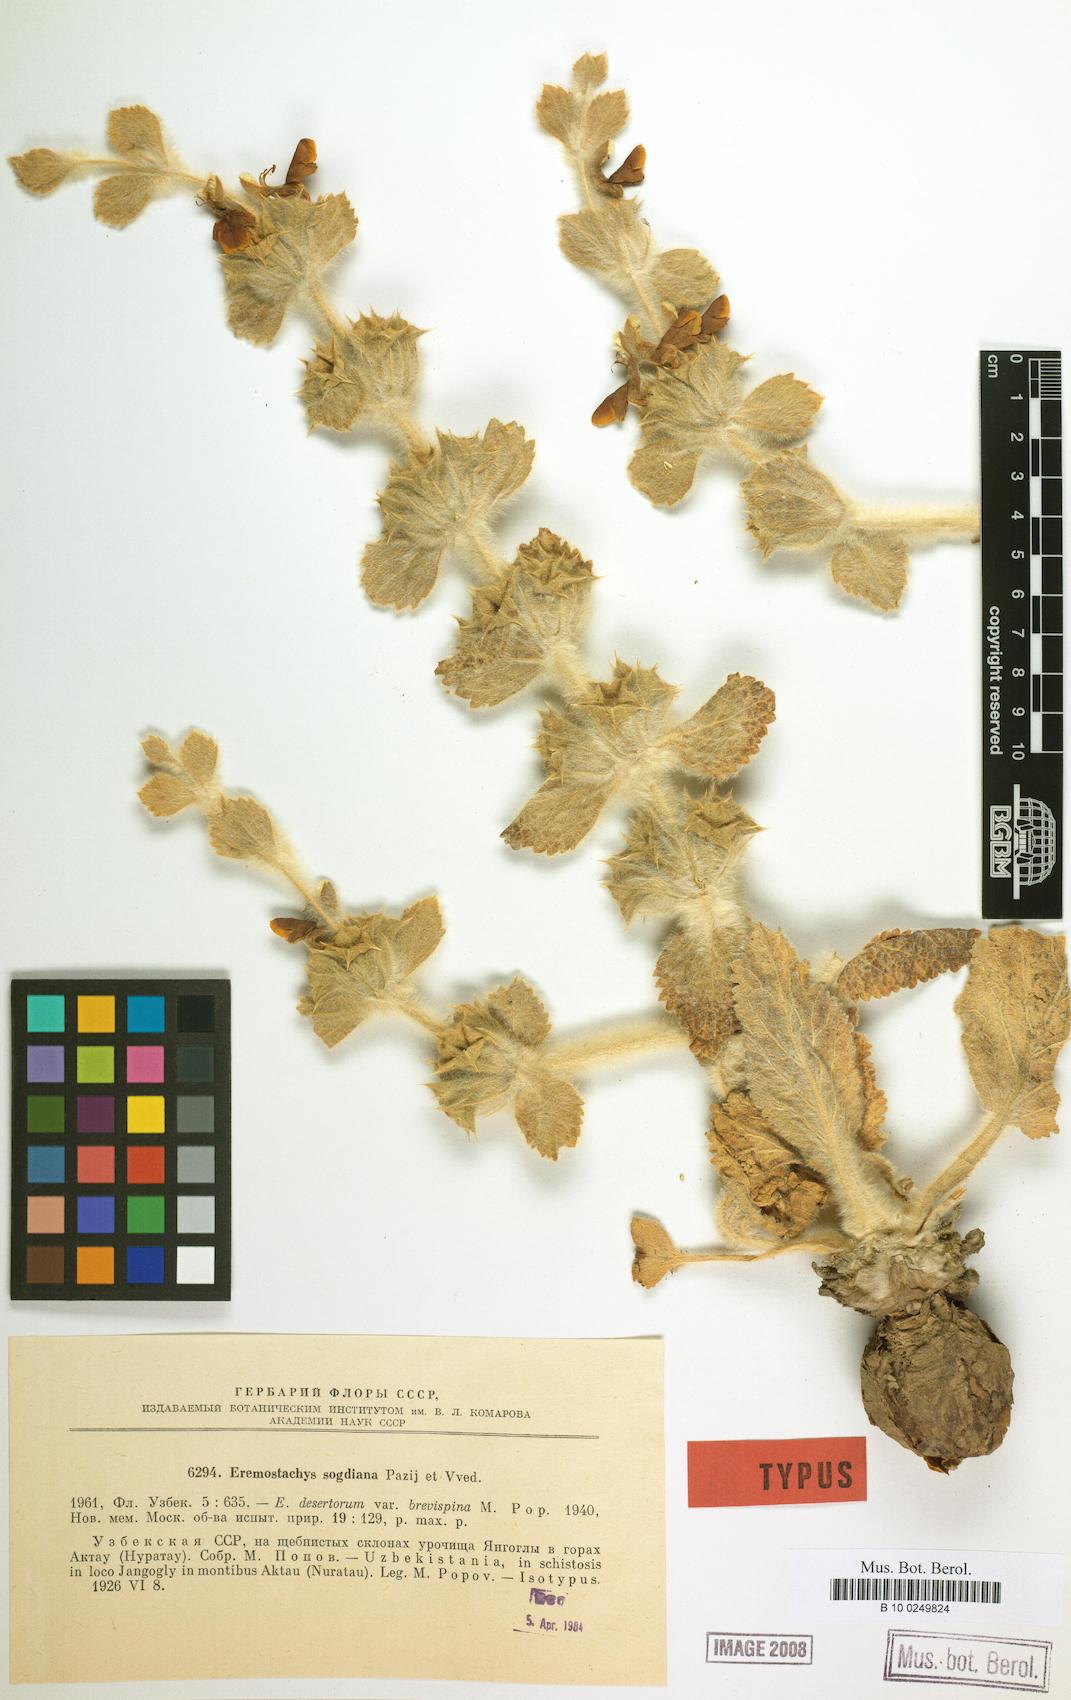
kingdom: Plantae
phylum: Tracheophyta
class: Magnoliopsida
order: Lamiales
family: Lamiaceae
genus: Phlomoides
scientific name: Phlomoides sogdiana
